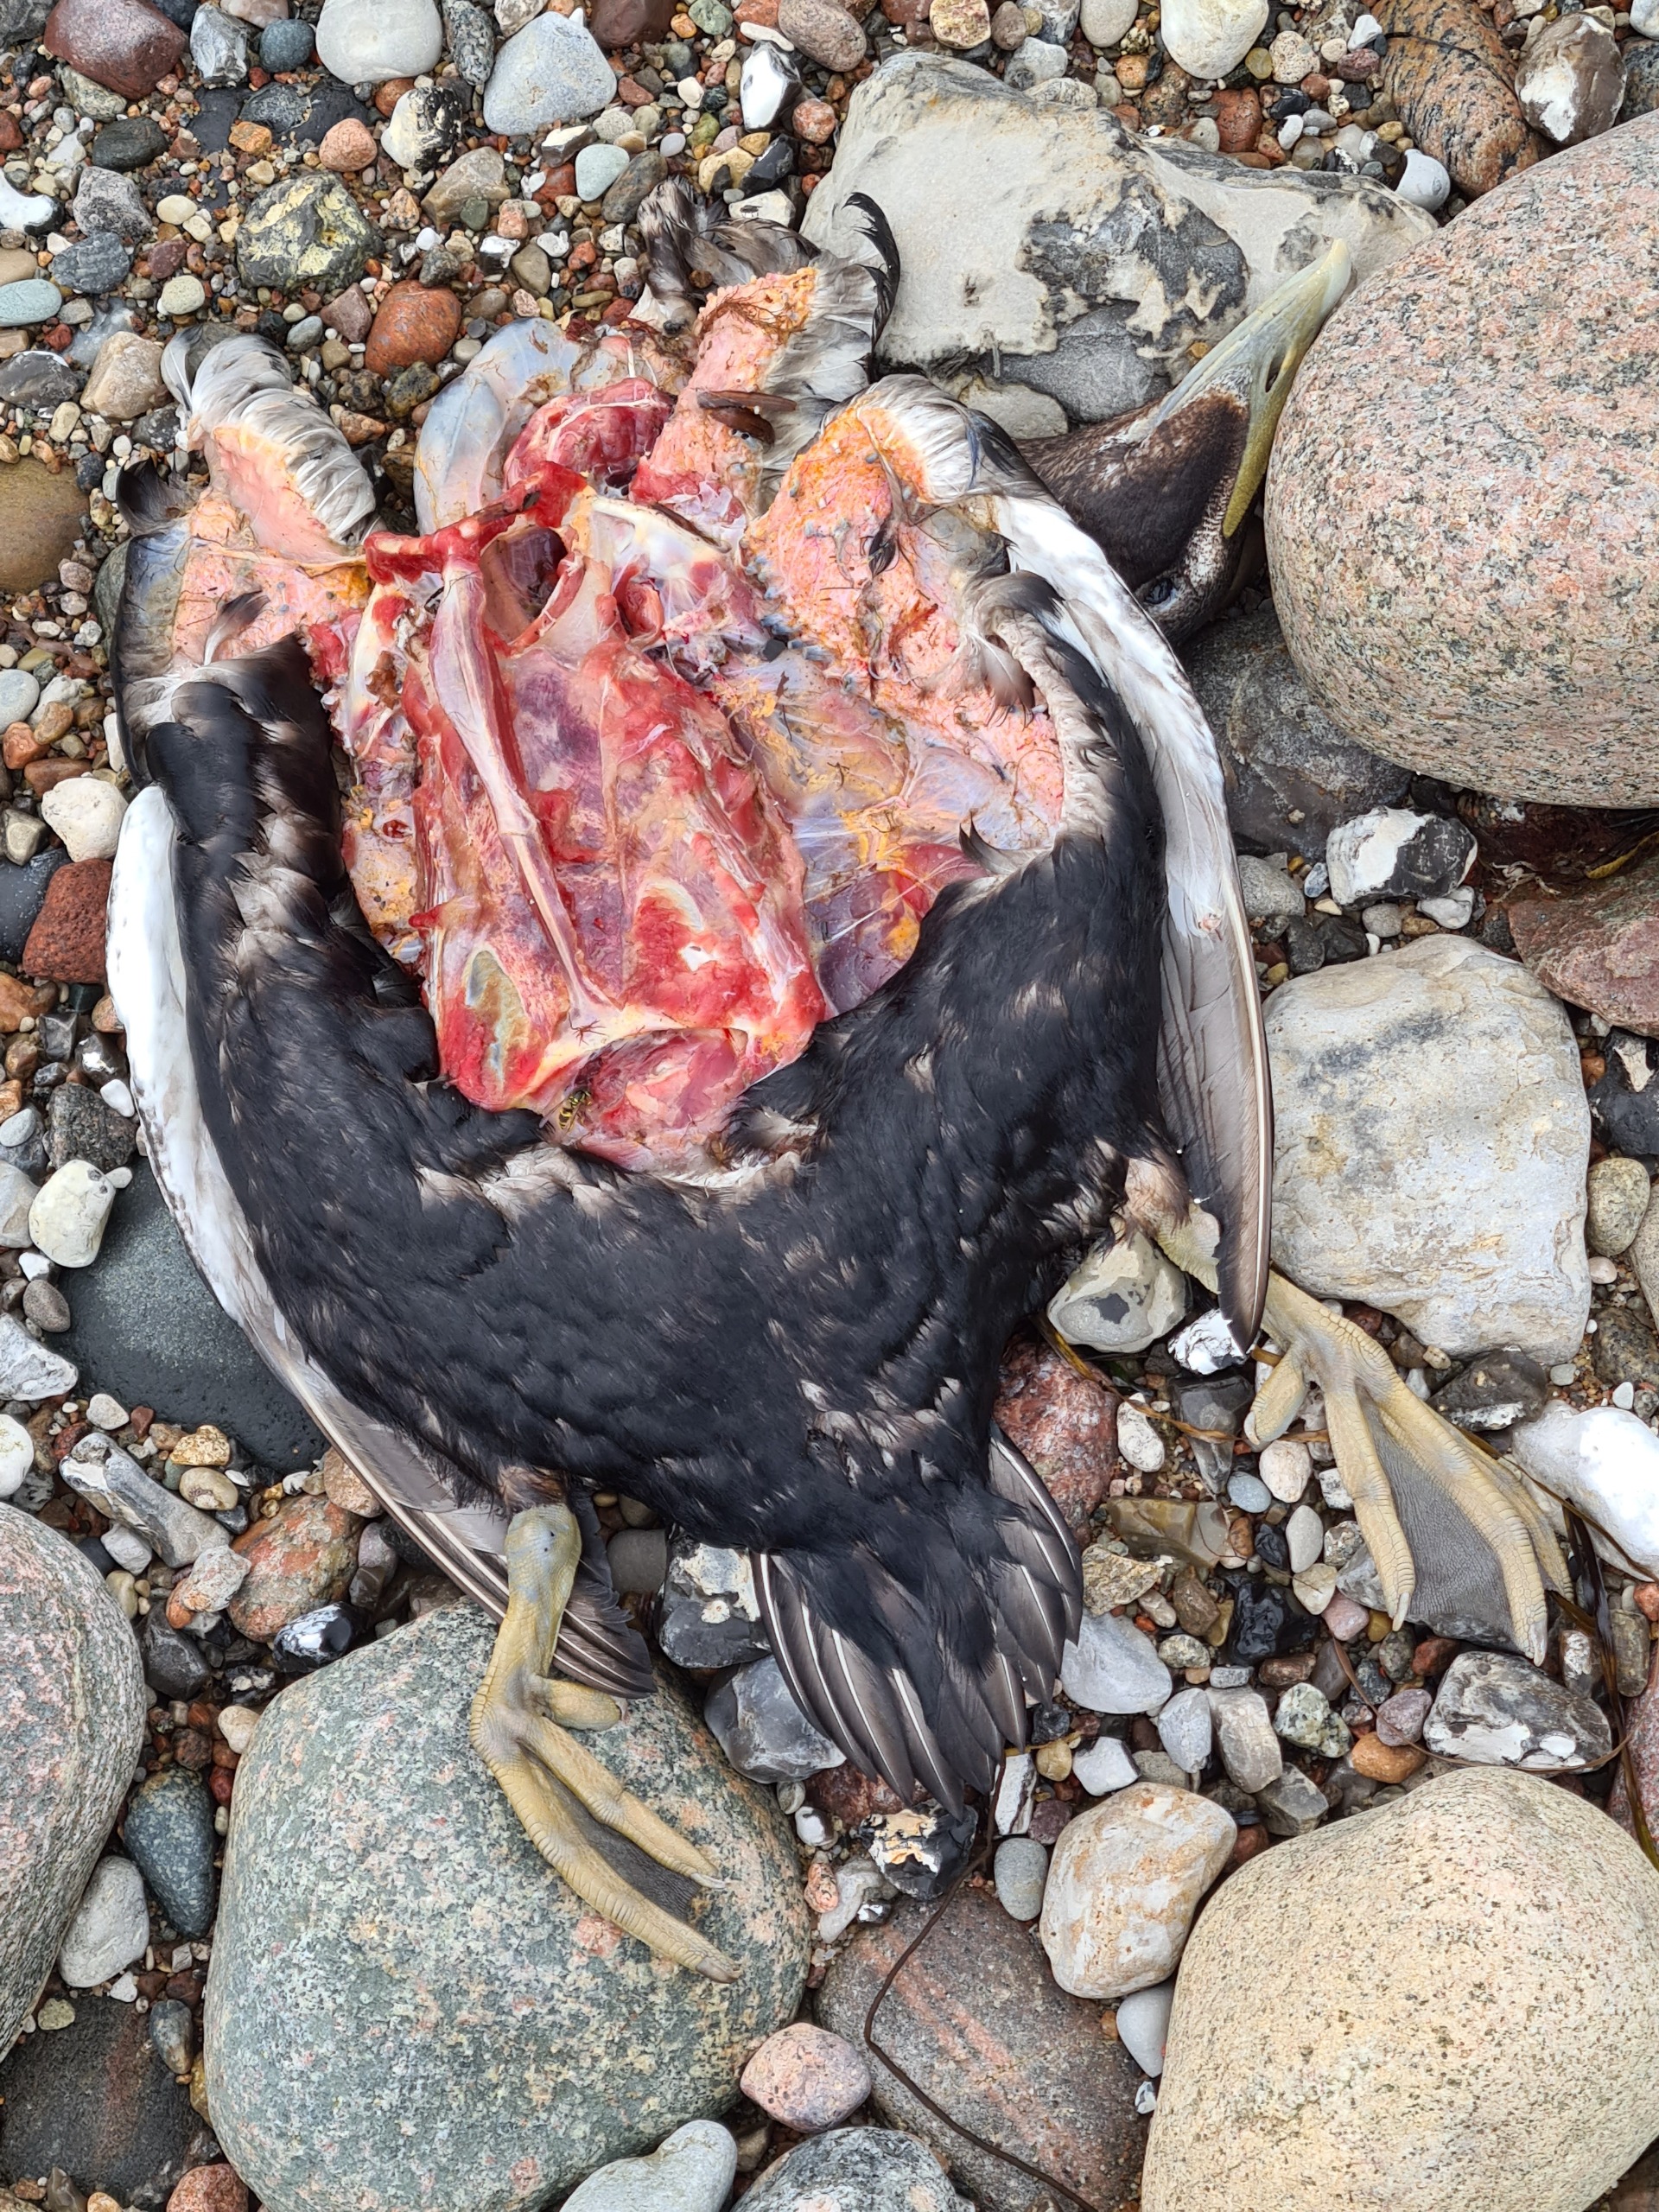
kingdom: Animalia
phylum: Chordata
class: Aves
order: Anseriformes
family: Anatidae
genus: Somateria
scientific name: Somateria mollissima
